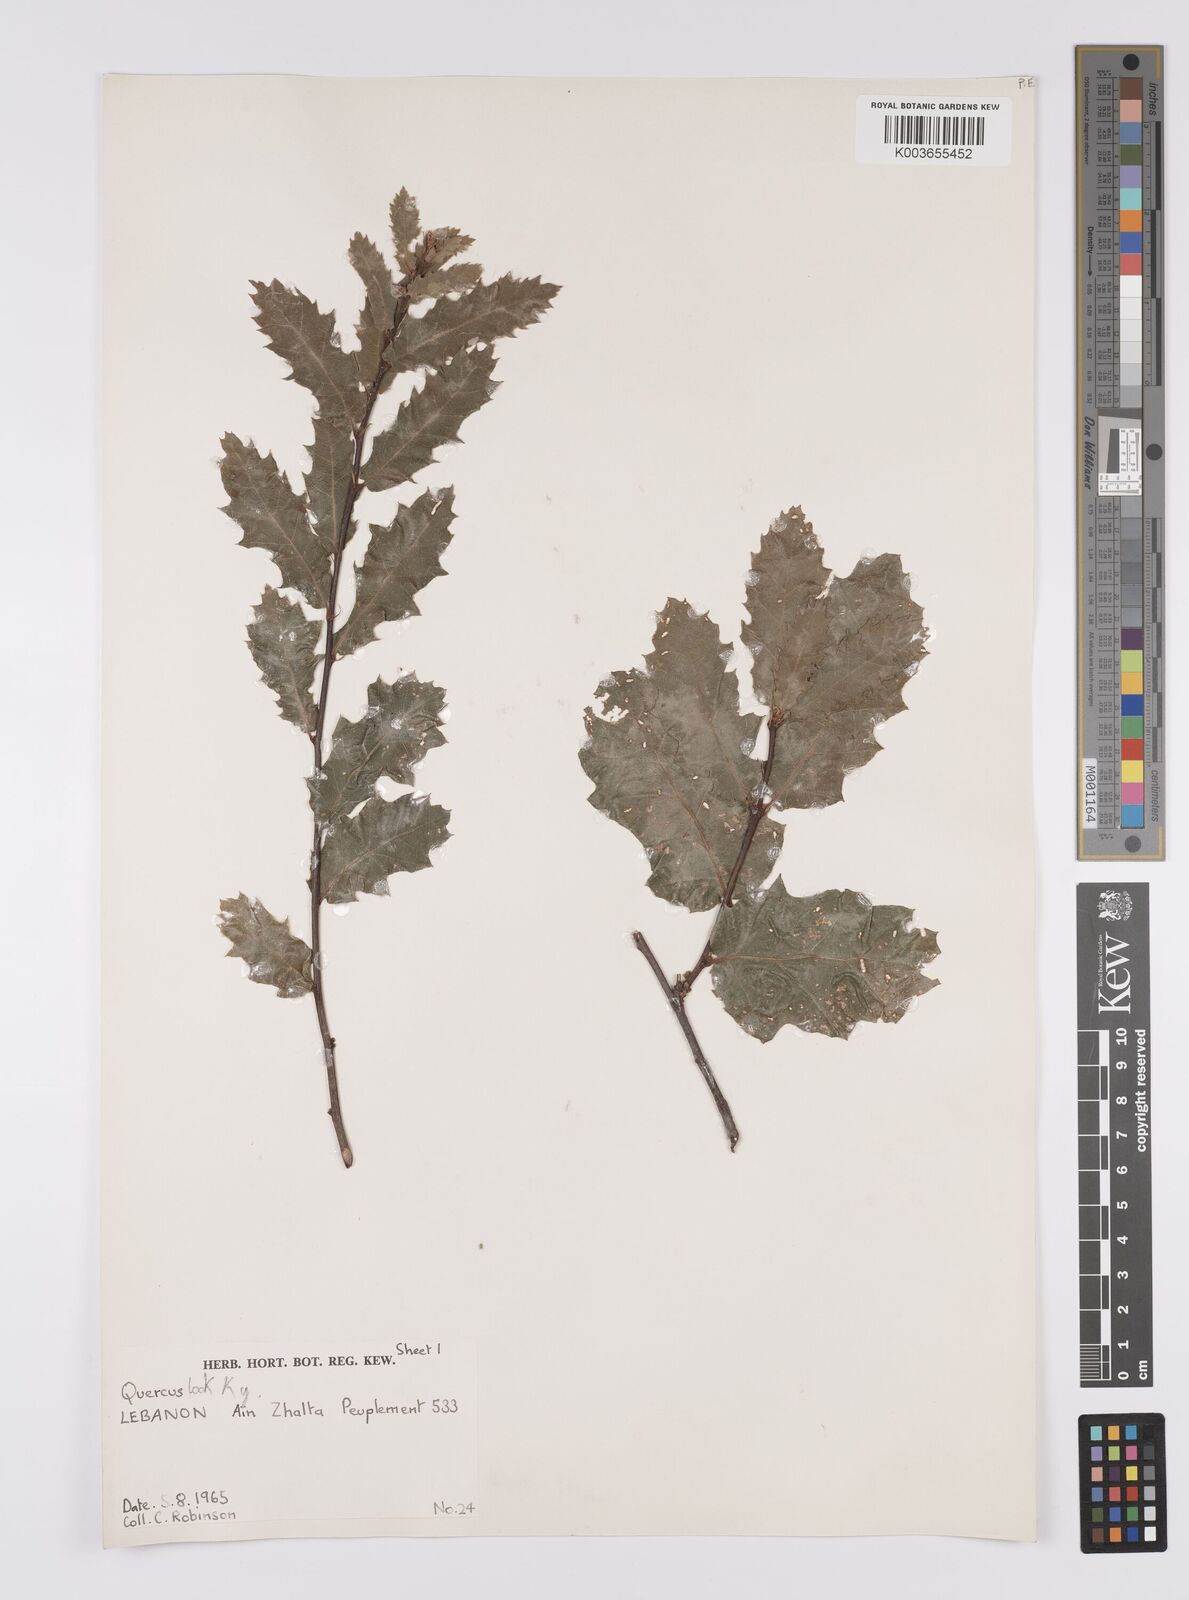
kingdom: Plantae
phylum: Tracheophyta
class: Magnoliopsida
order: Fagales
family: Fagaceae
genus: Quercus
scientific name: Quercus look
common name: Look oak
